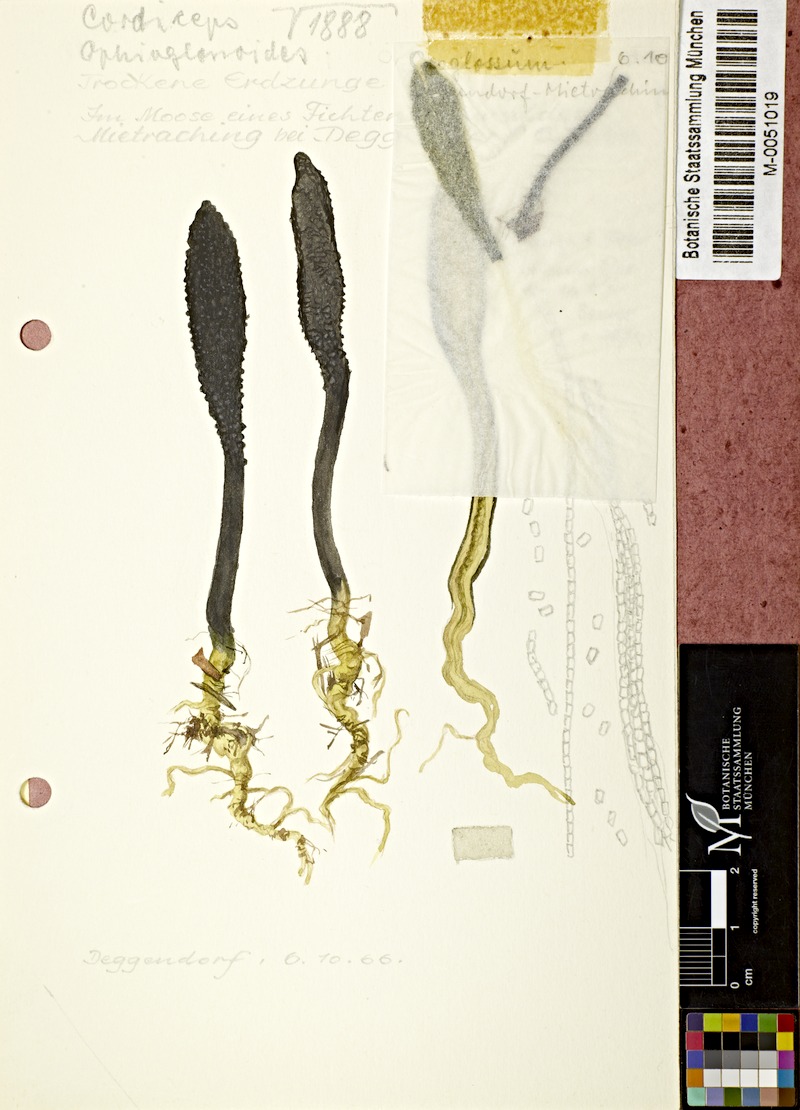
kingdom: Fungi
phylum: Ascomycota
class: Sordariomycetes
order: Hypocreales
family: Ophiocordycipitaceae
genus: Tolypocladium
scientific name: Tolypocladium ophioglossoides
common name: Snaketongue truffleclub
